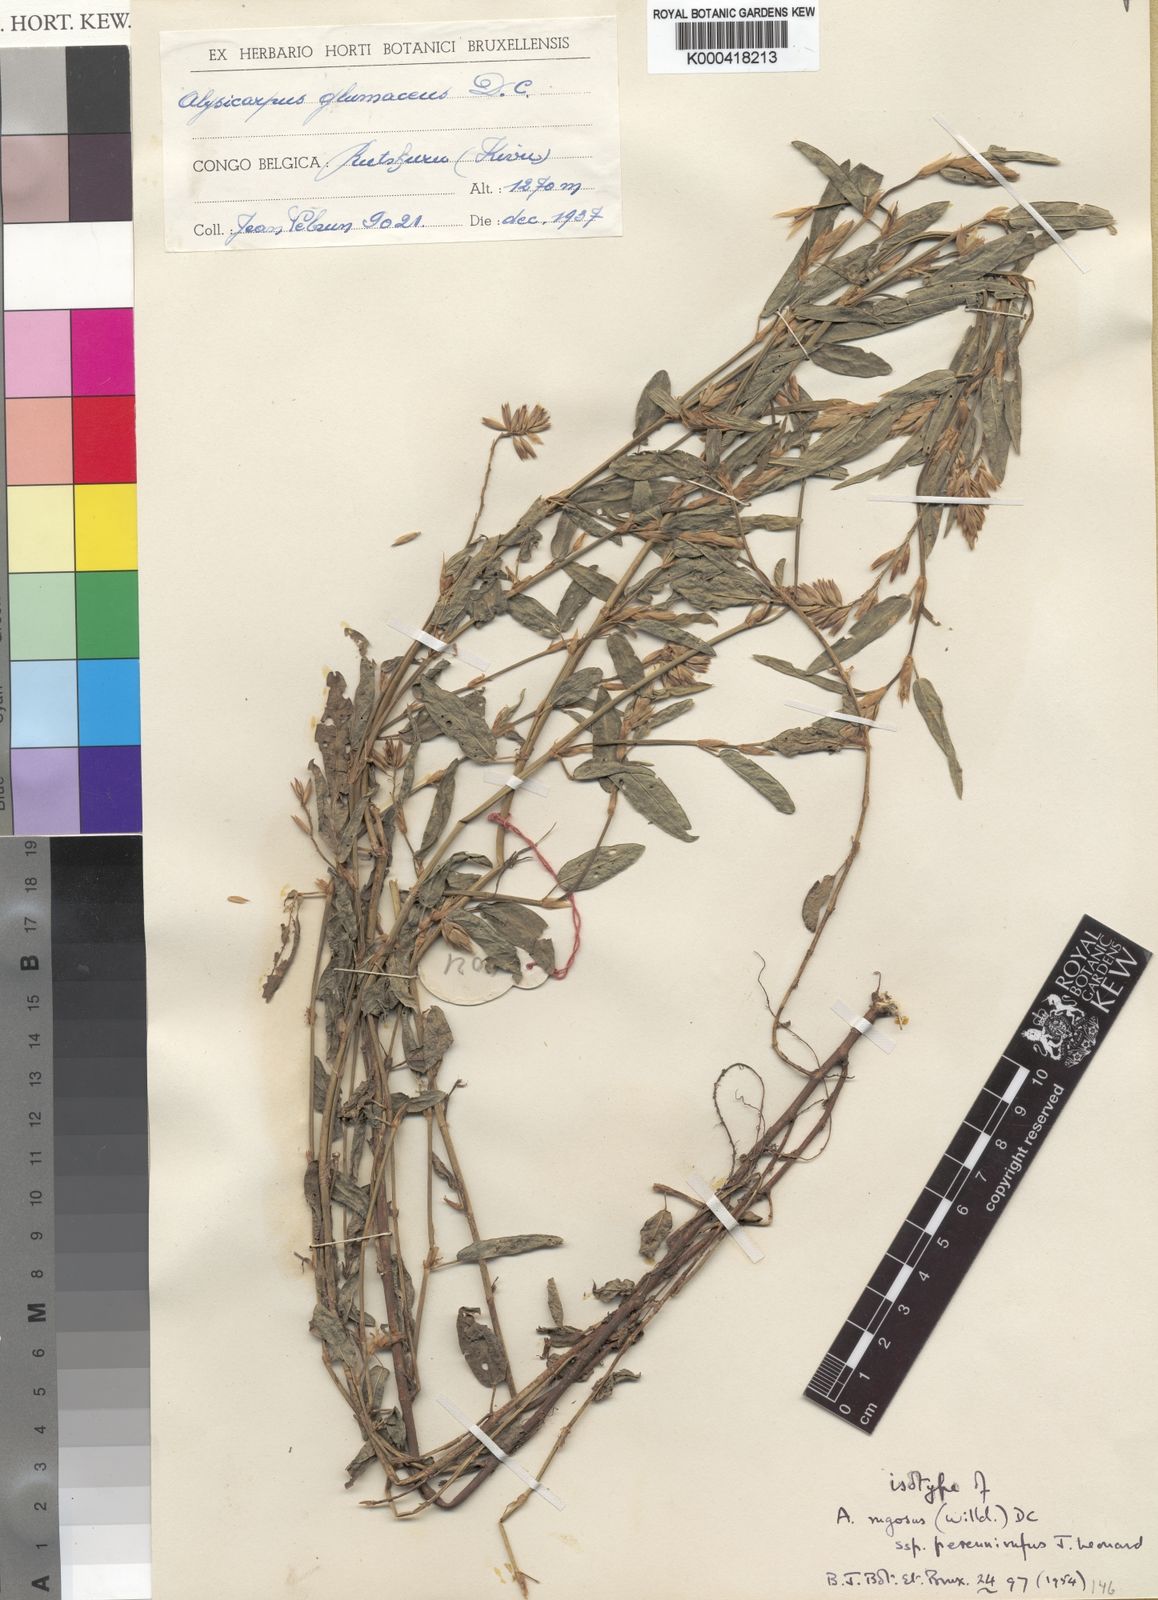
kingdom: Plantae
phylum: Tracheophyta
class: Magnoliopsida
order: Fabales
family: Fabaceae
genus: Alysicarpus
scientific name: Alysicarpus rugosus
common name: Red moneywort
